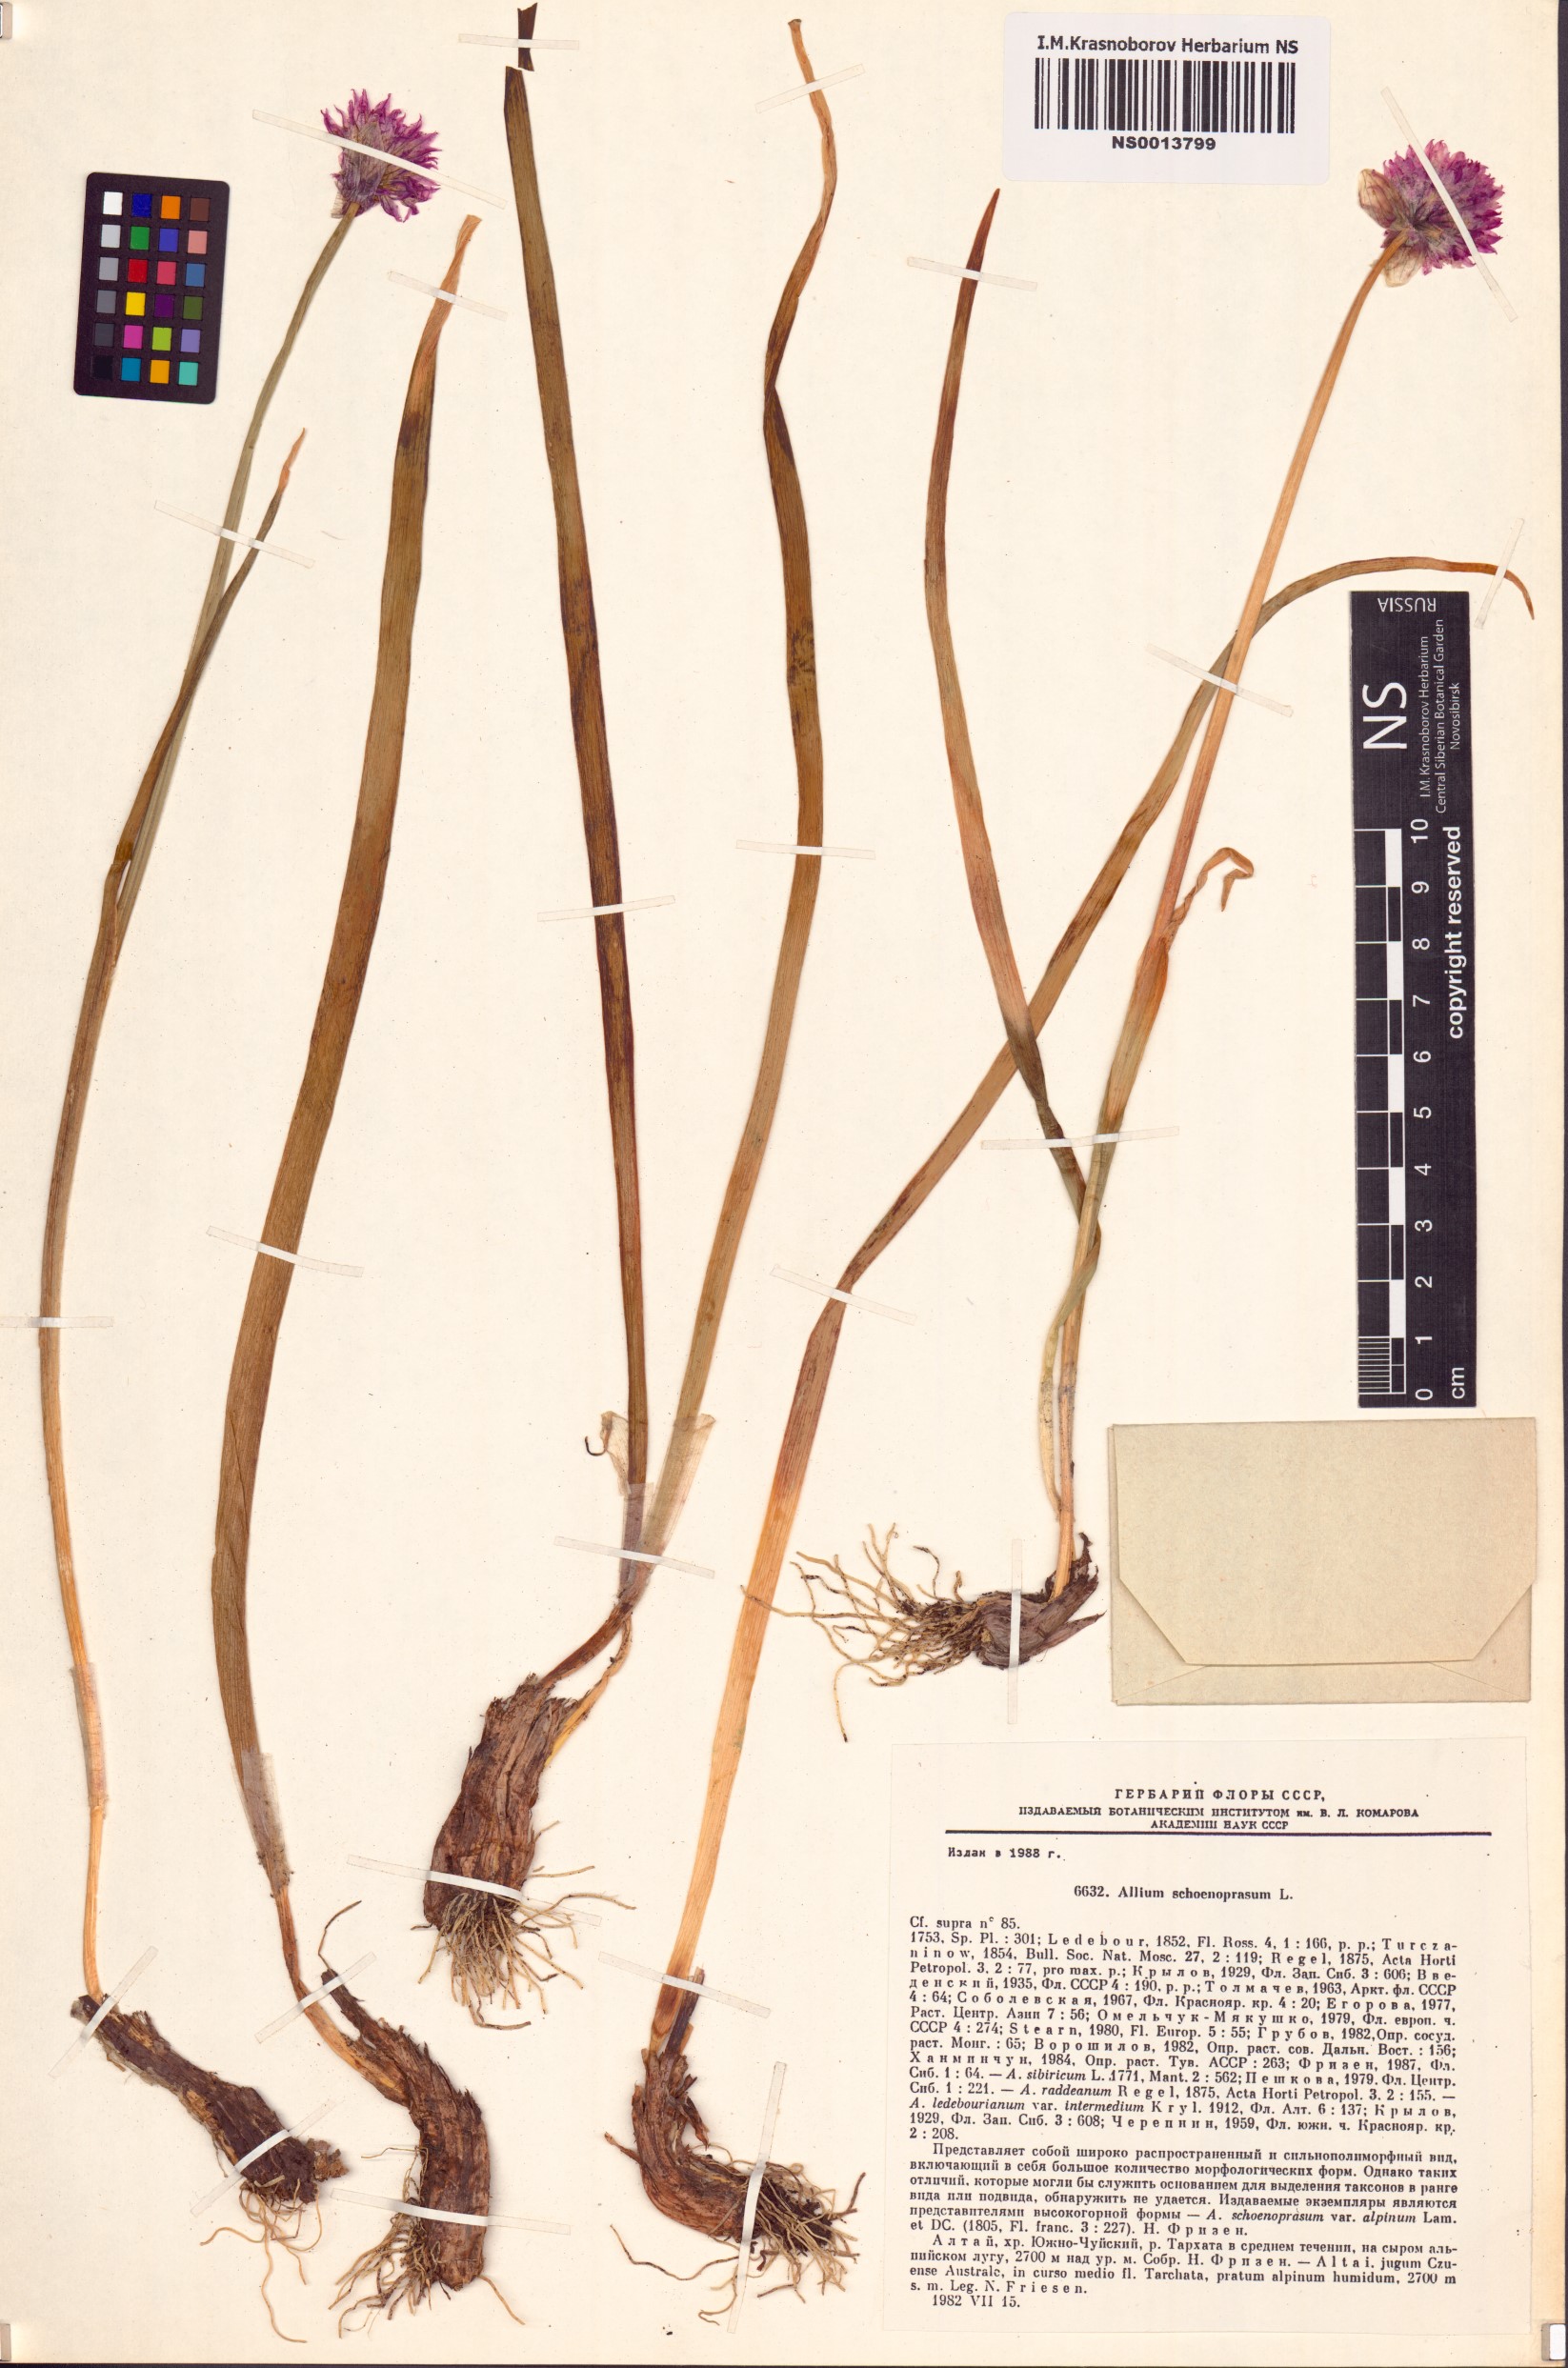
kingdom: Plantae
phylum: Tracheophyta
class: Liliopsida
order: Asparagales
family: Amaryllidaceae
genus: Allium
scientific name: Allium schoenoprasum
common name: Chives
